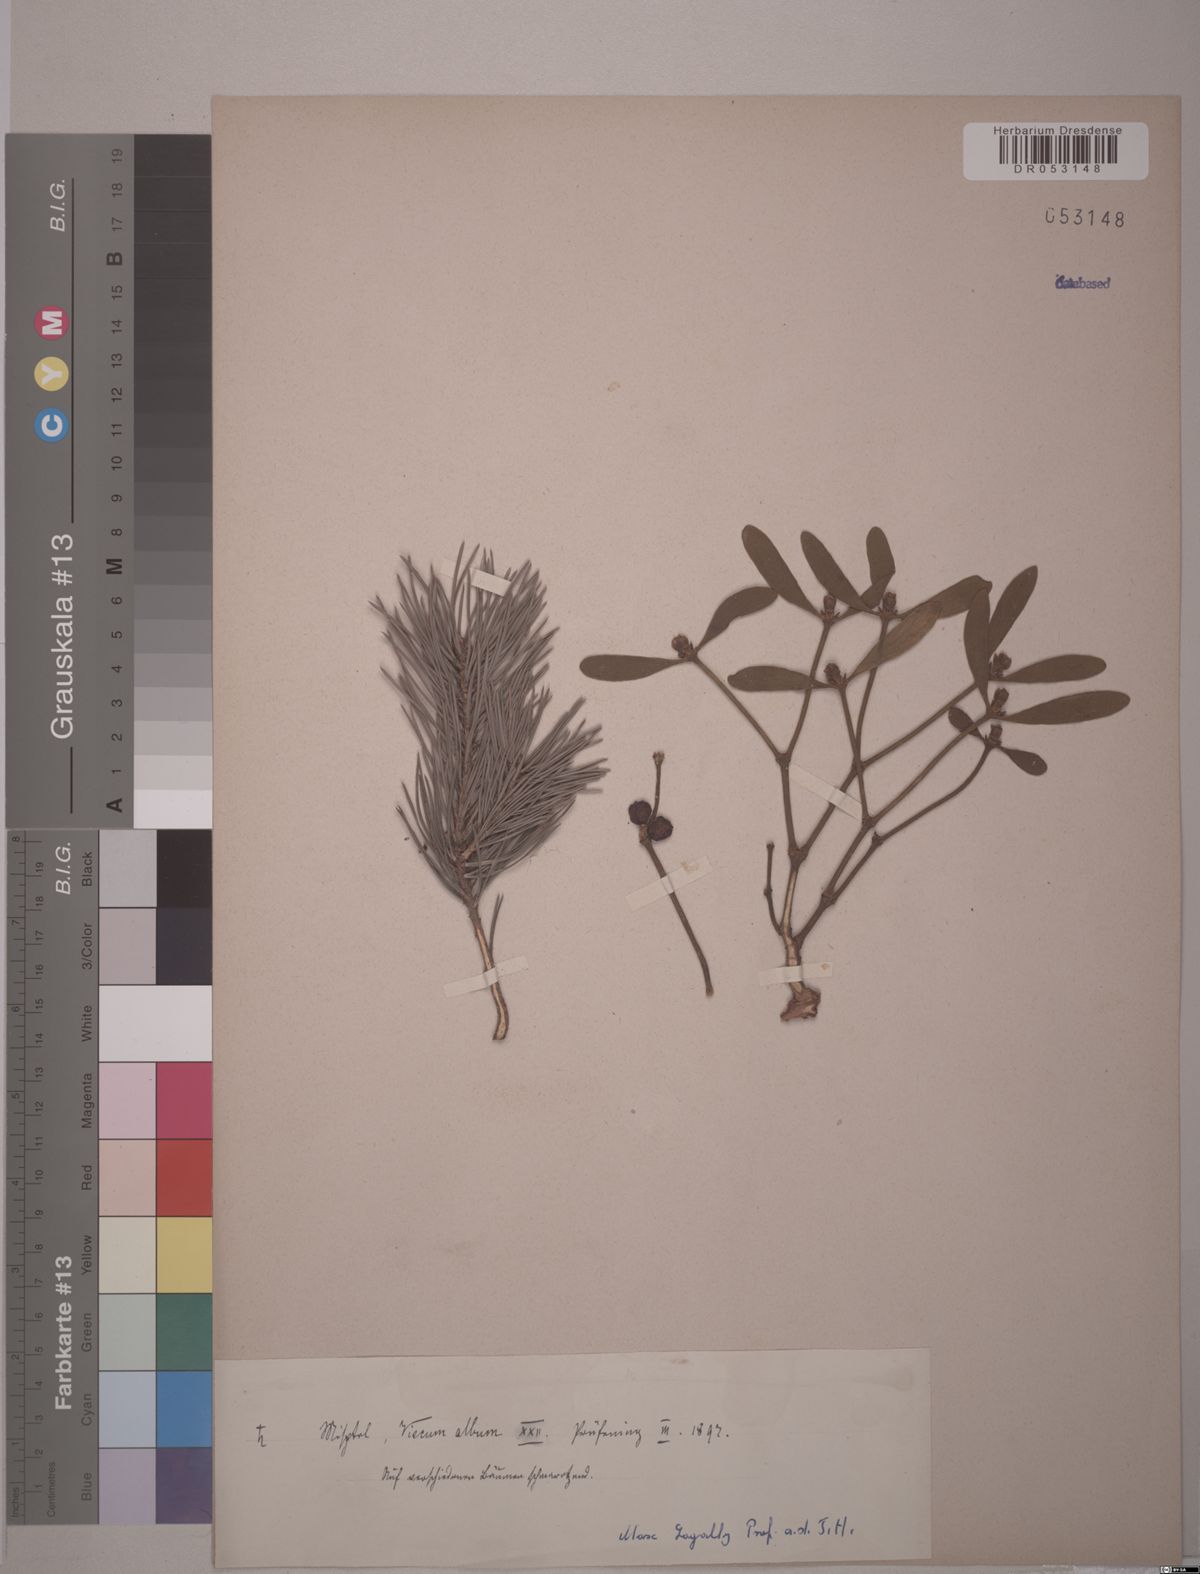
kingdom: Plantae
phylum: Tracheophyta
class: Magnoliopsida
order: Santalales
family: Viscaceae
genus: Viscum
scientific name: Viscum album
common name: Mistletoe
